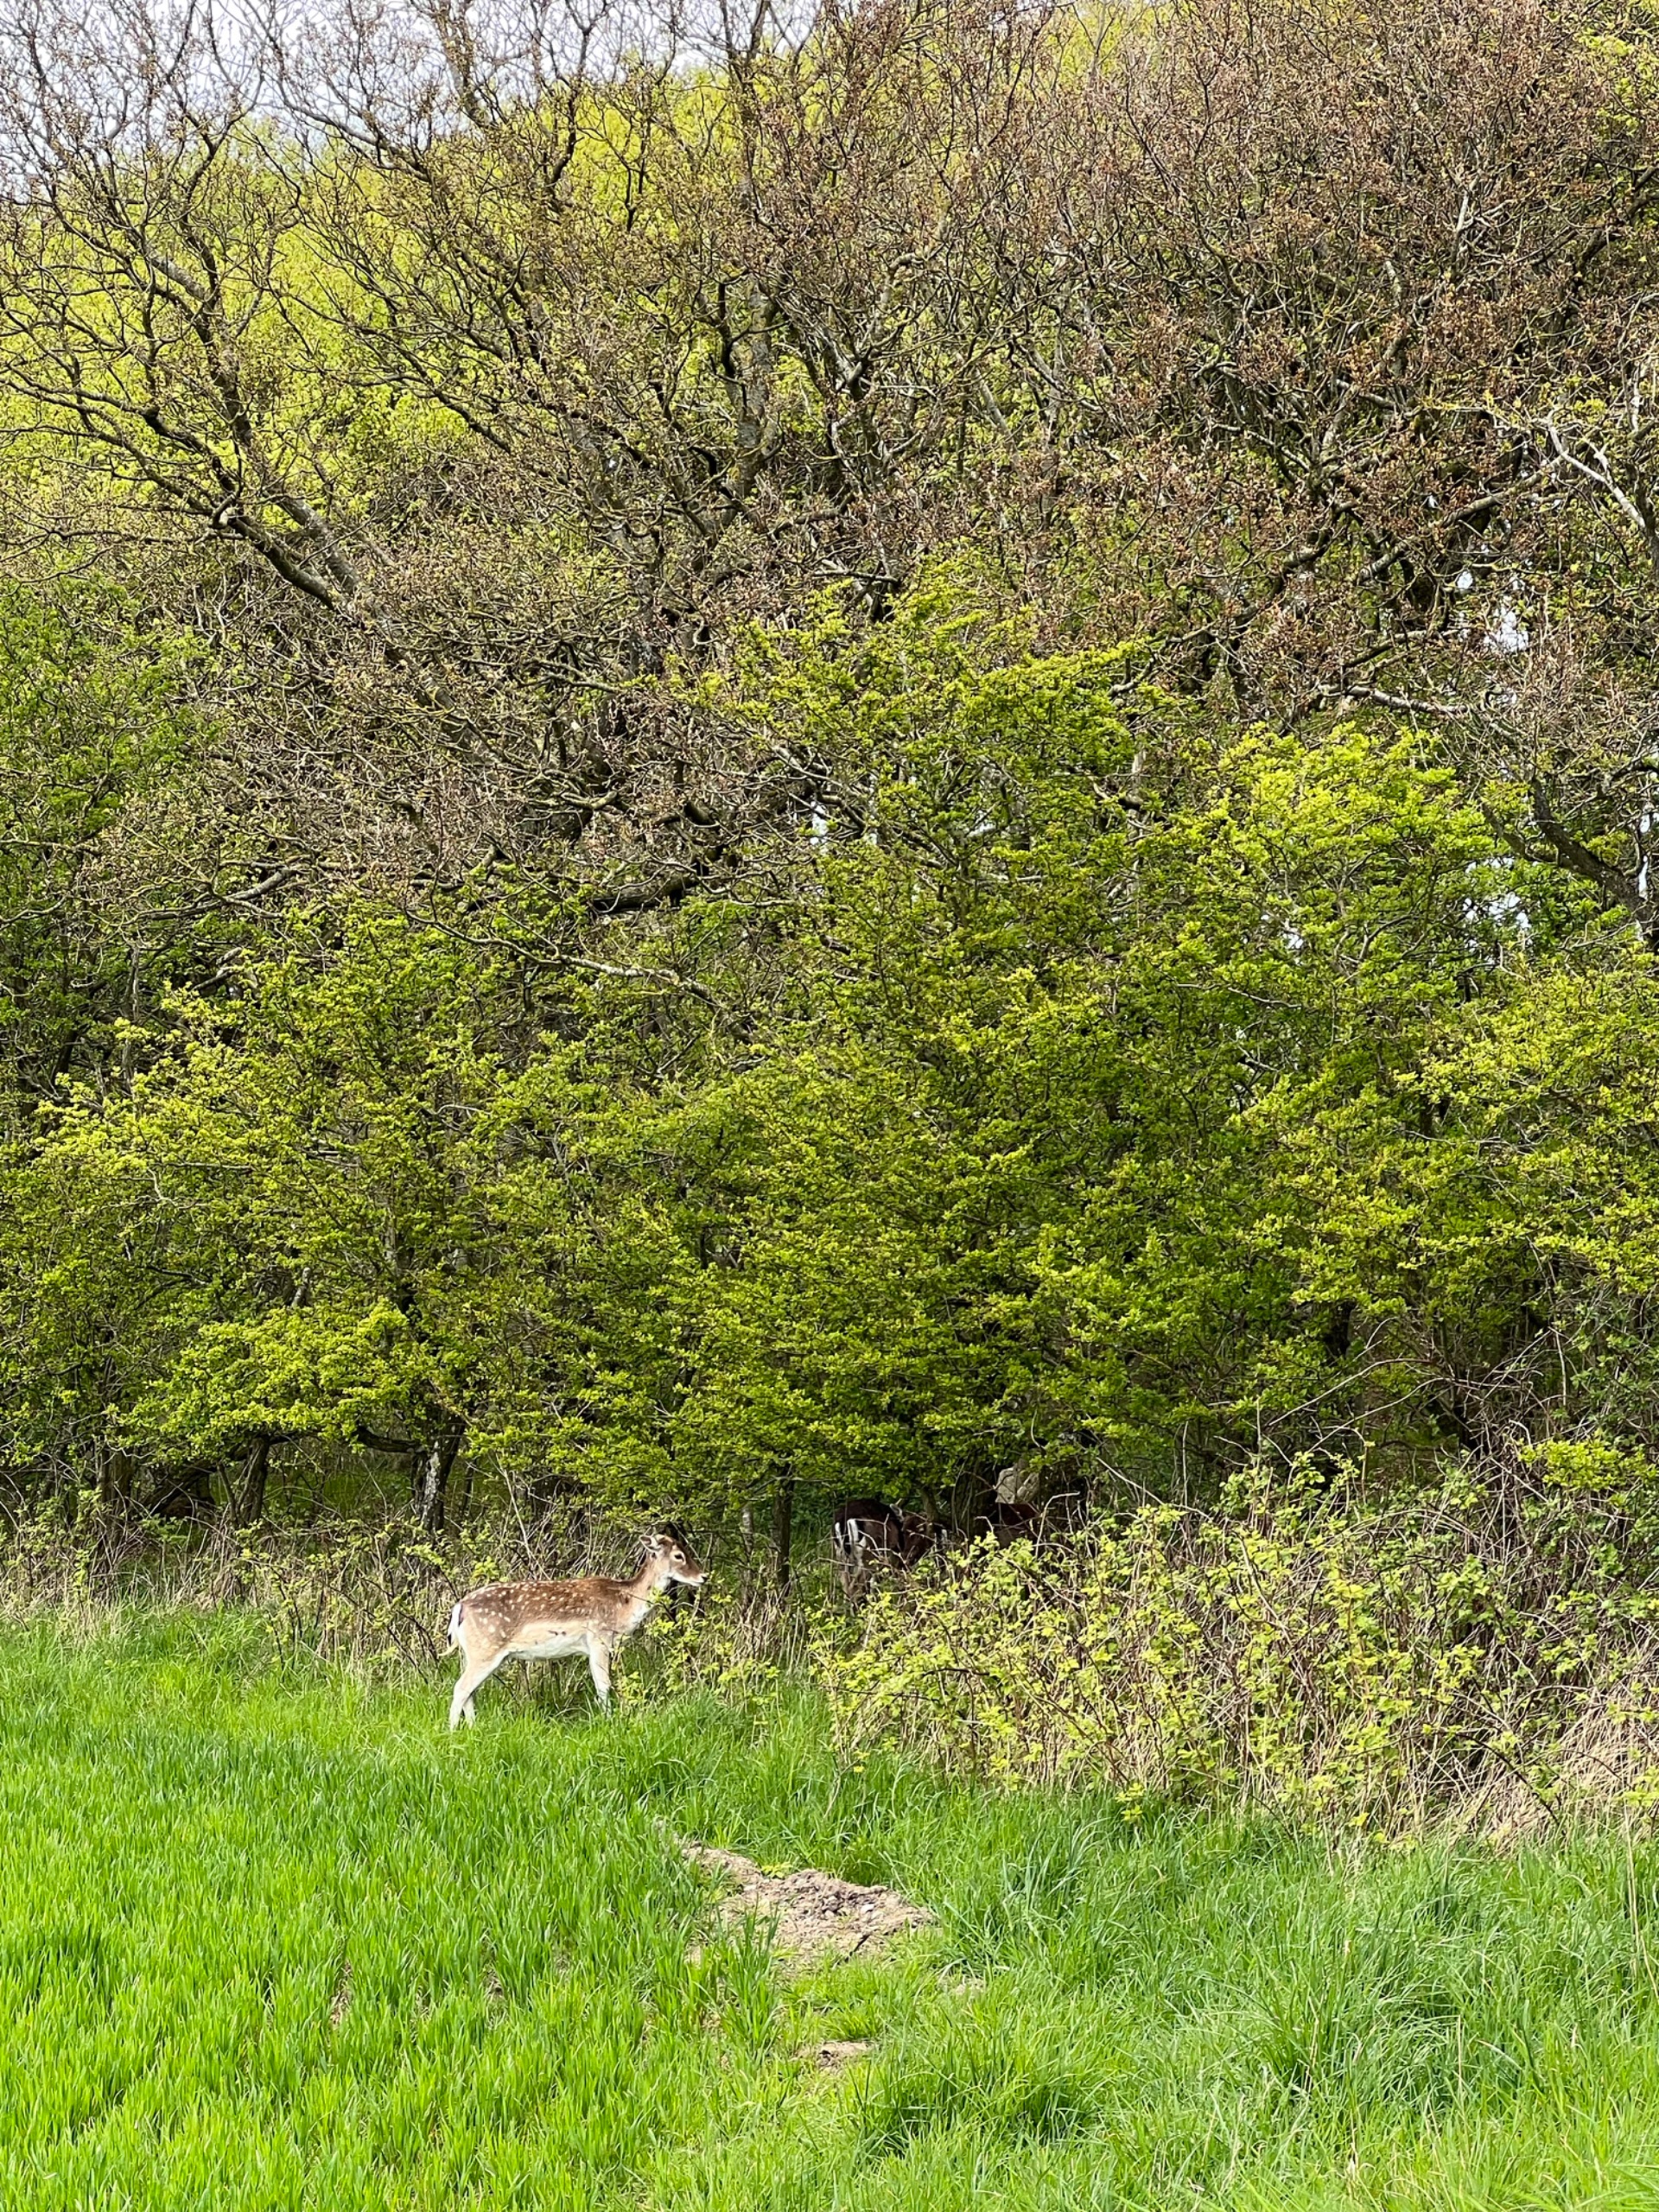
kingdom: Animalia
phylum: Chordata
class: Mammalia
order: Artiodactyla
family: Cervidae
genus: Dama
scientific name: Dama dama
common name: Dådyr
